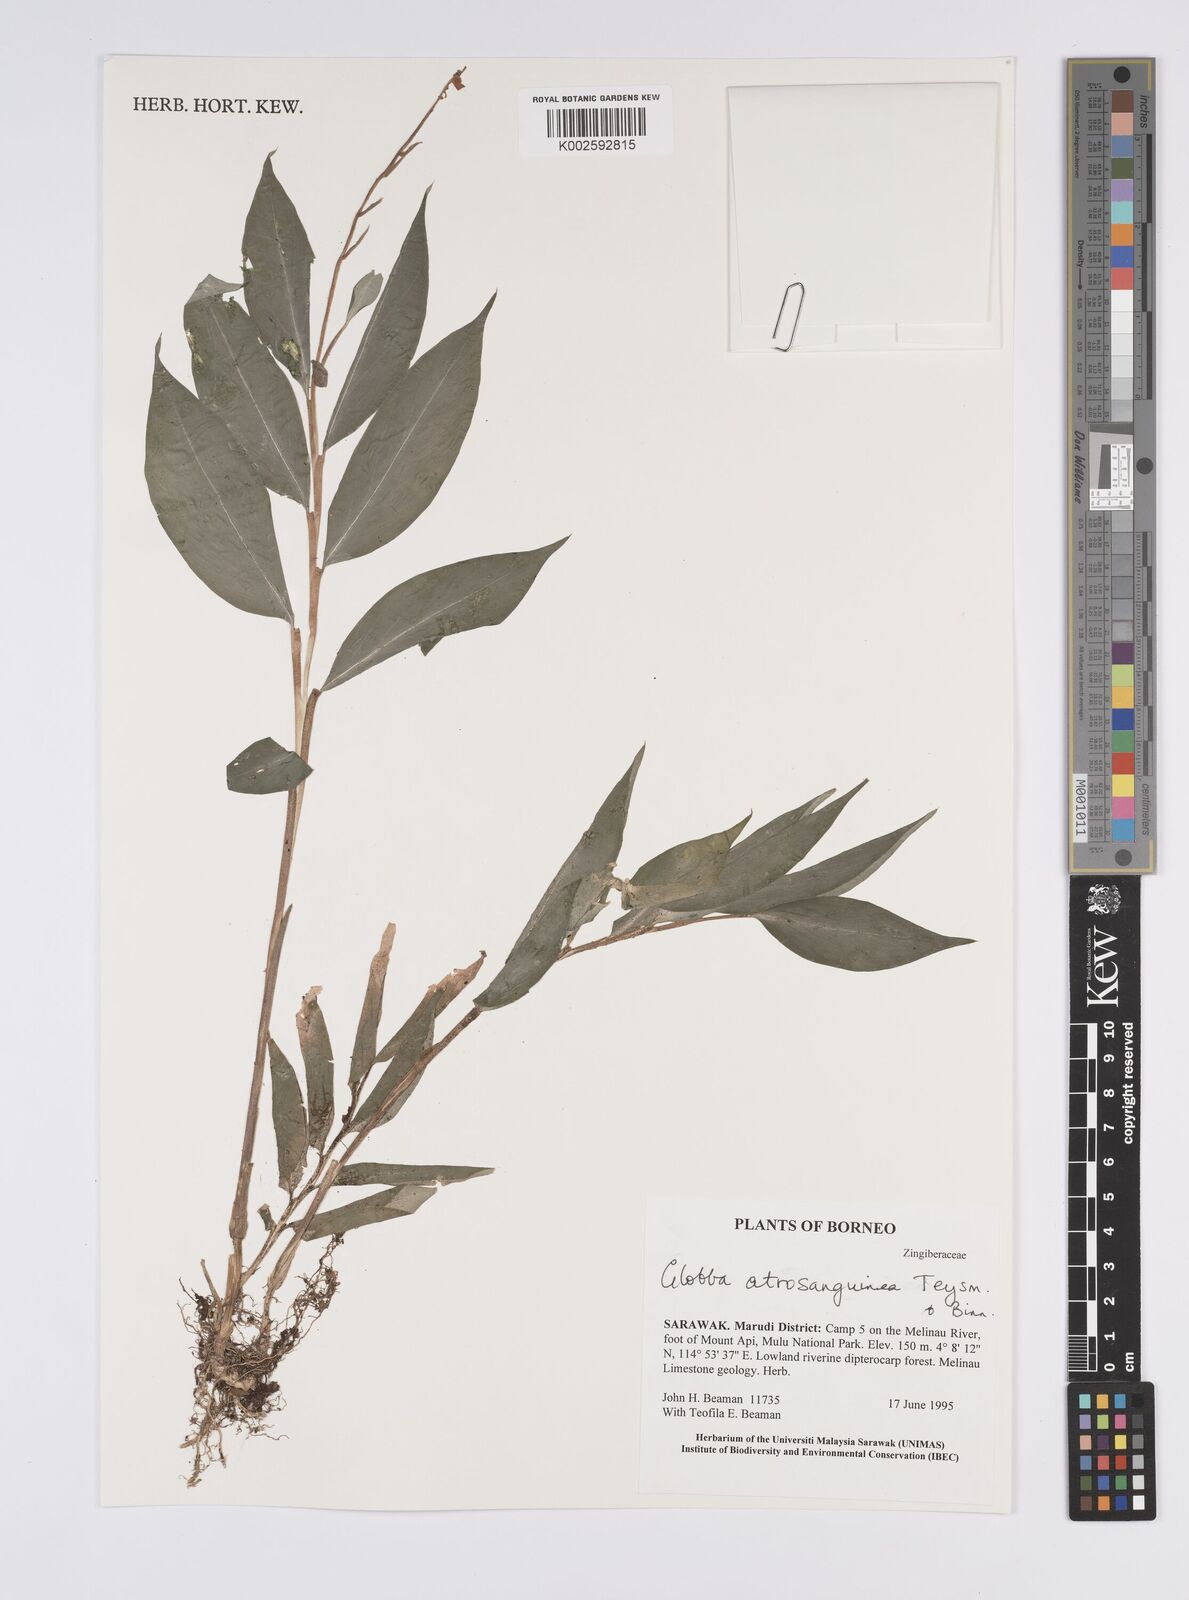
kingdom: Plantae
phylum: Tracheophyta
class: Liliopsida
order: Zingiberales
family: Zingiberaceae
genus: Globba
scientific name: Globba atrosanguinea
